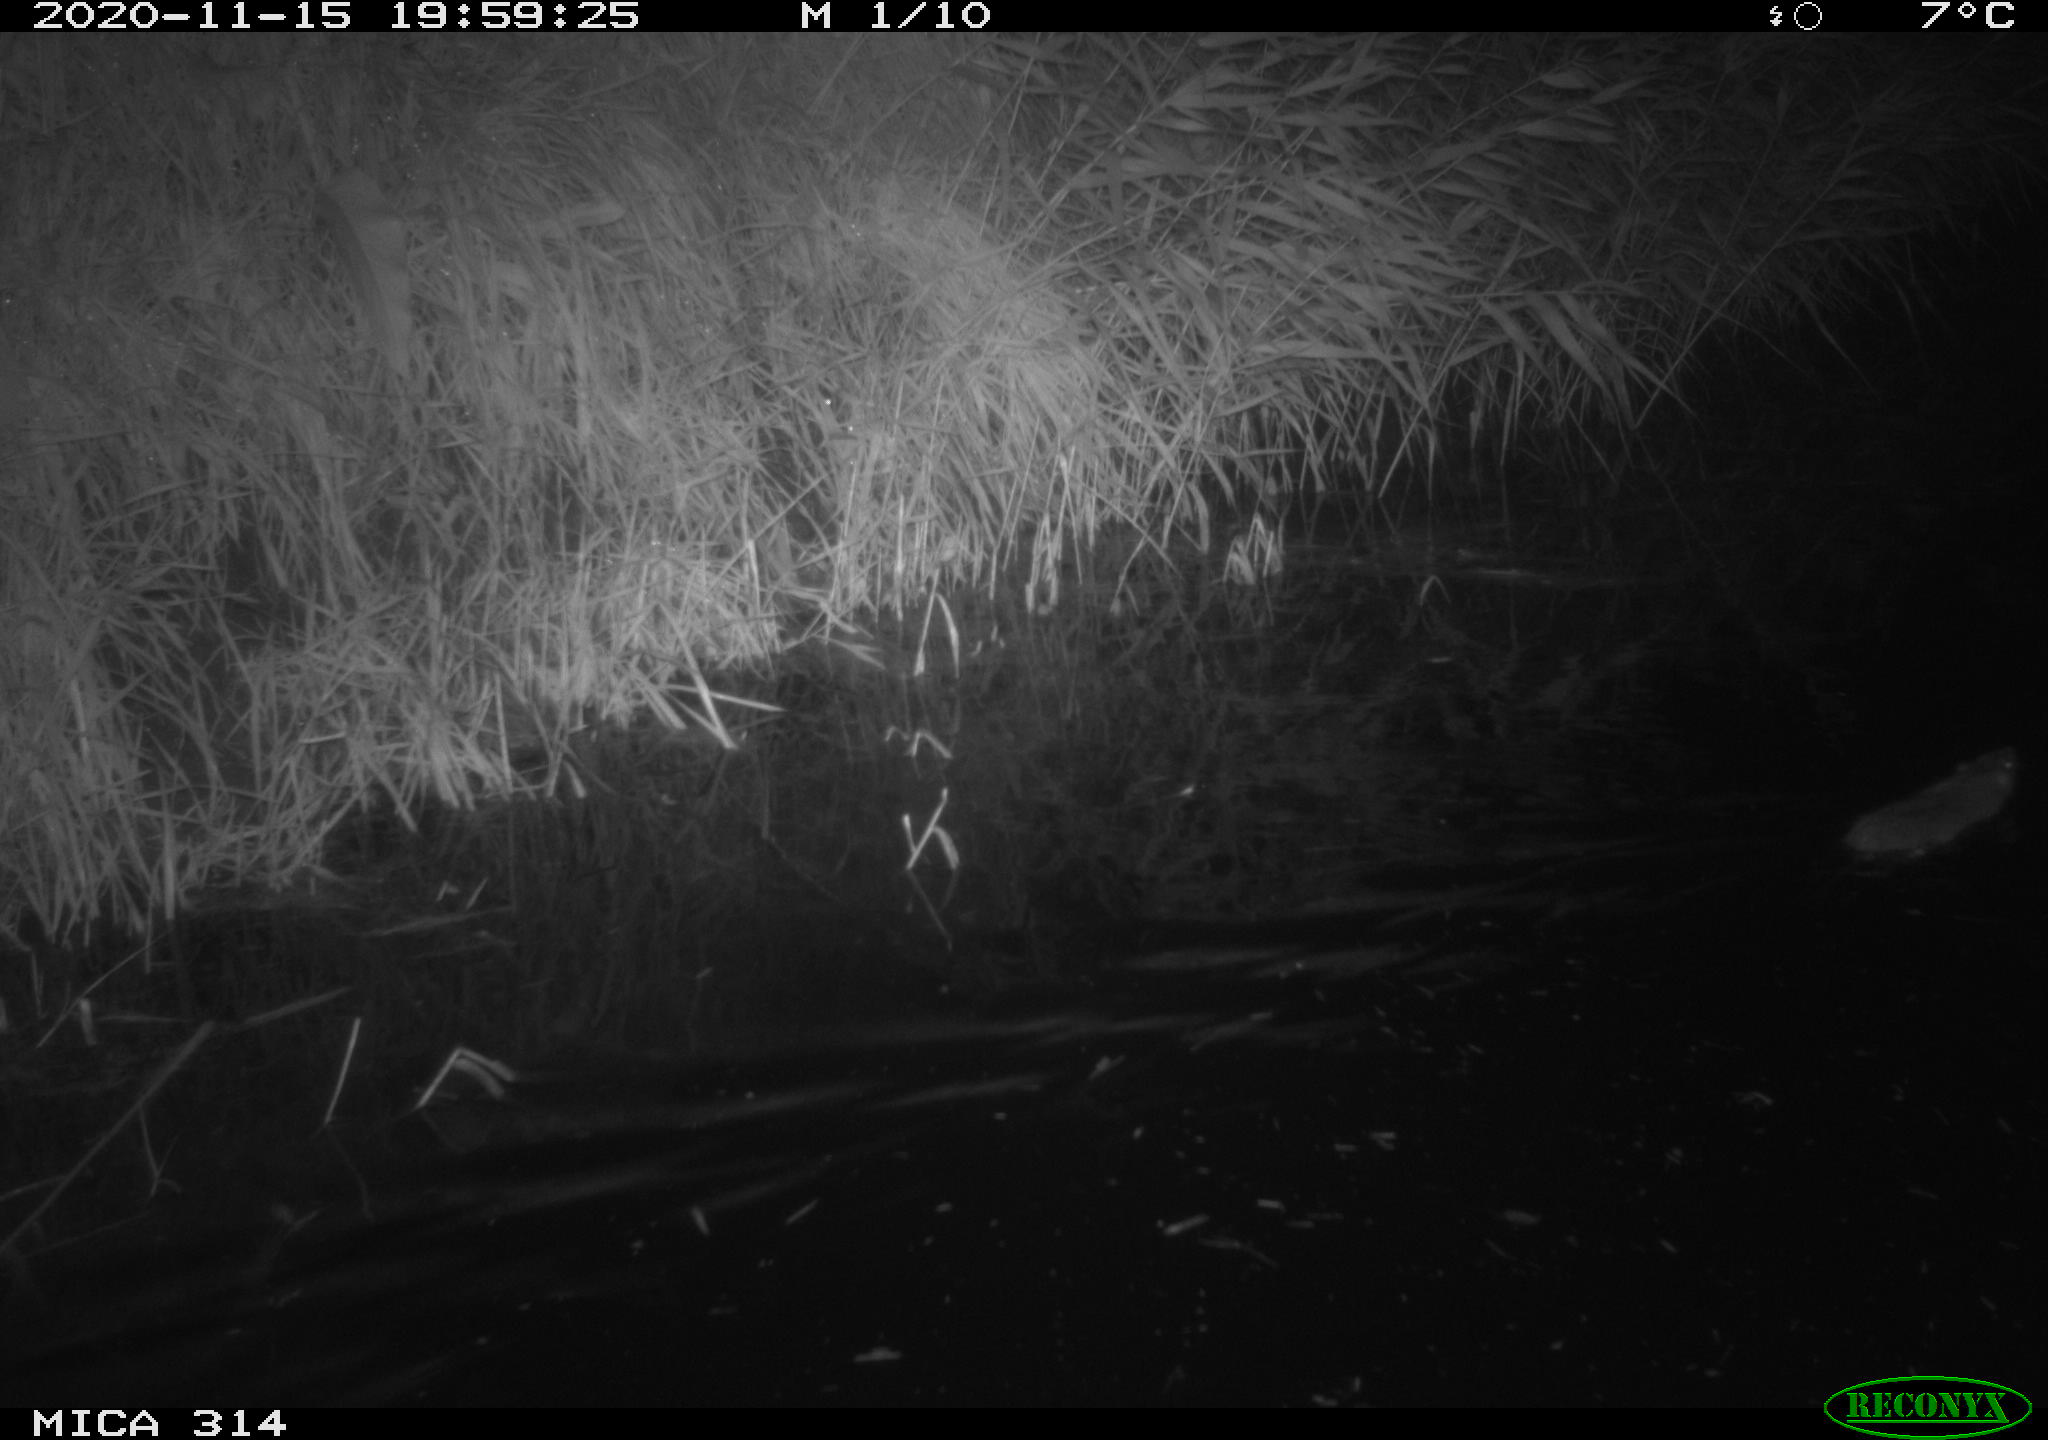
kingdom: Animalia
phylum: Chordata
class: Mammalia
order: Rodentia
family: Muridae
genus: Rattus
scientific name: Rattus norvegicus
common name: Brown rat
